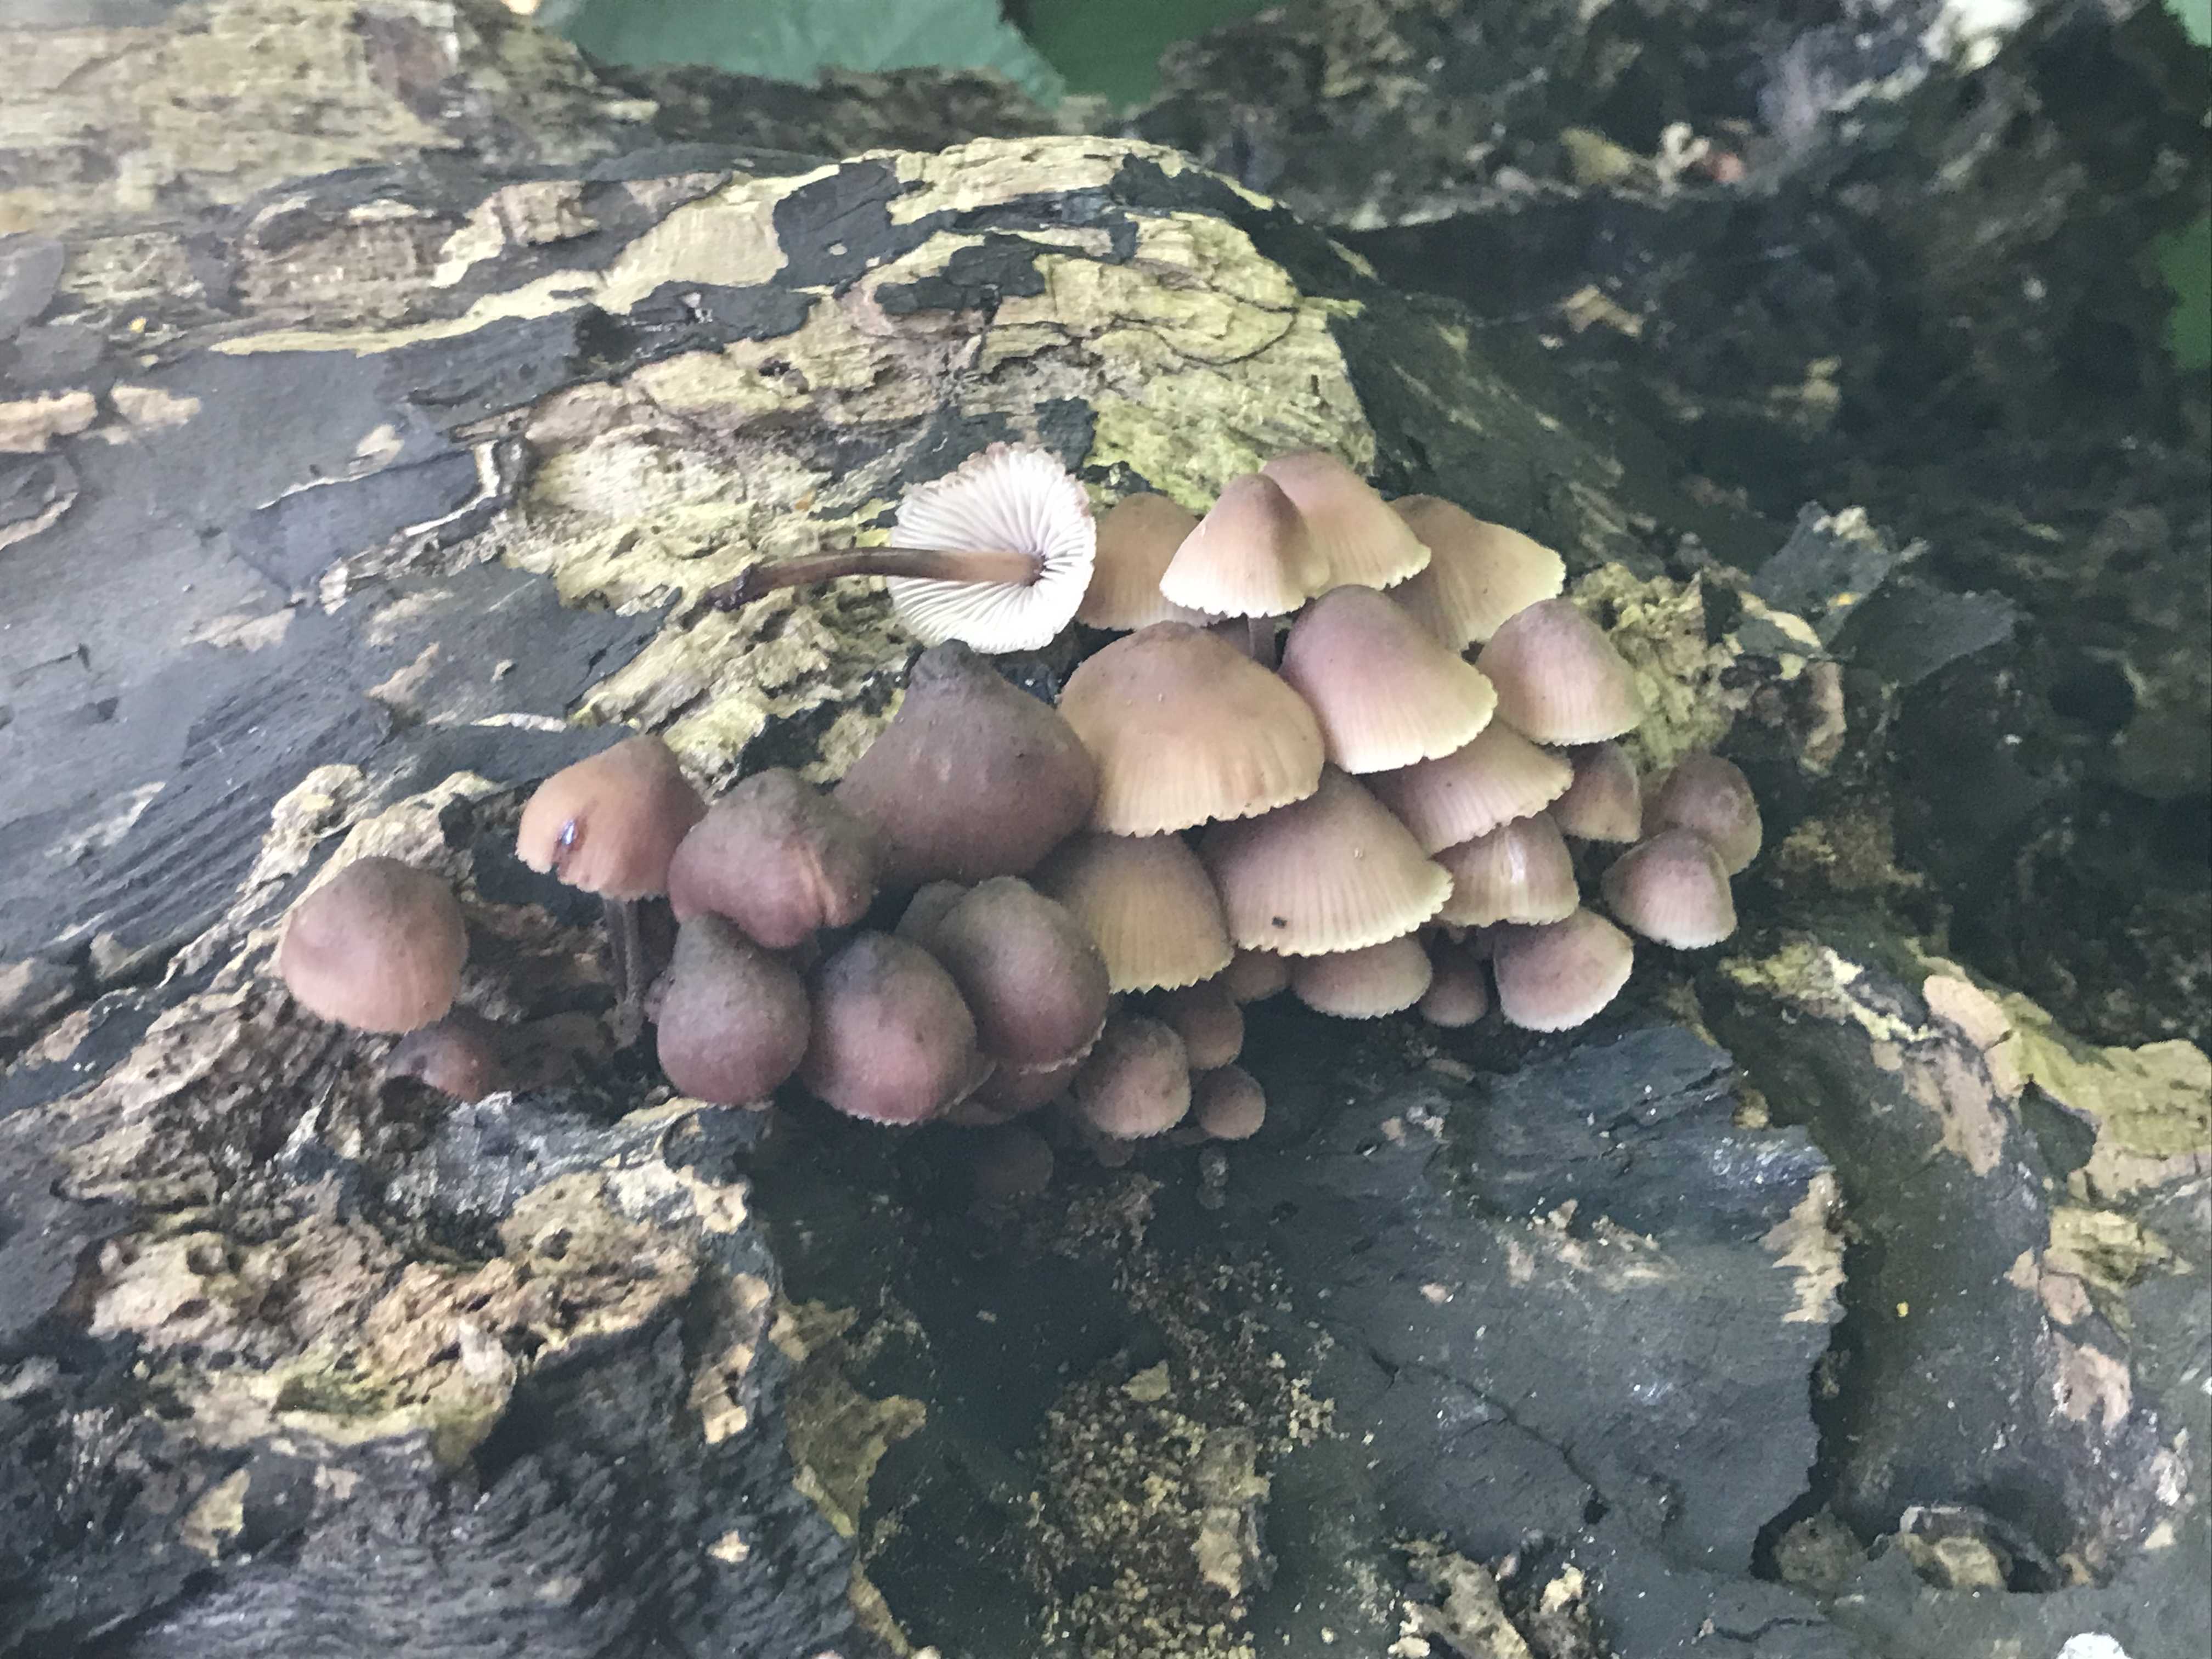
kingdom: Fungi
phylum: Basidiomycota
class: Agaricomycetes
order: Agaricales
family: Mycenaceae
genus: Mycena
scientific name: Mycena haematopus
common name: blødende huesvamp
